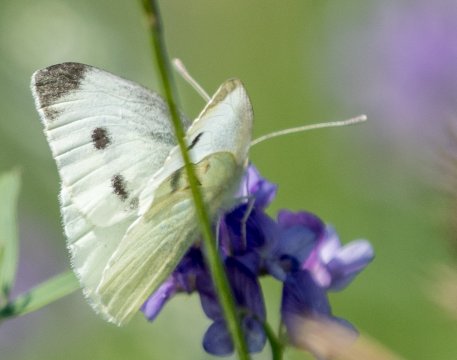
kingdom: Animalia
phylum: Arthropoda
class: Insecta
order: Lepidoptera
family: Pieridae
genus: Pieris
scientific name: Pieris rapae
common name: Cabbage White
